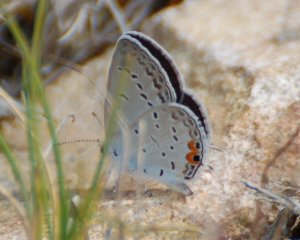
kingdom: Animalia
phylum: Arthropoda
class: Insecta
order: Lepidoptera
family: Lycaenidae
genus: Elkalyce
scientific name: Elkalyce comyntas
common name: Eastern Tailed-Blue
